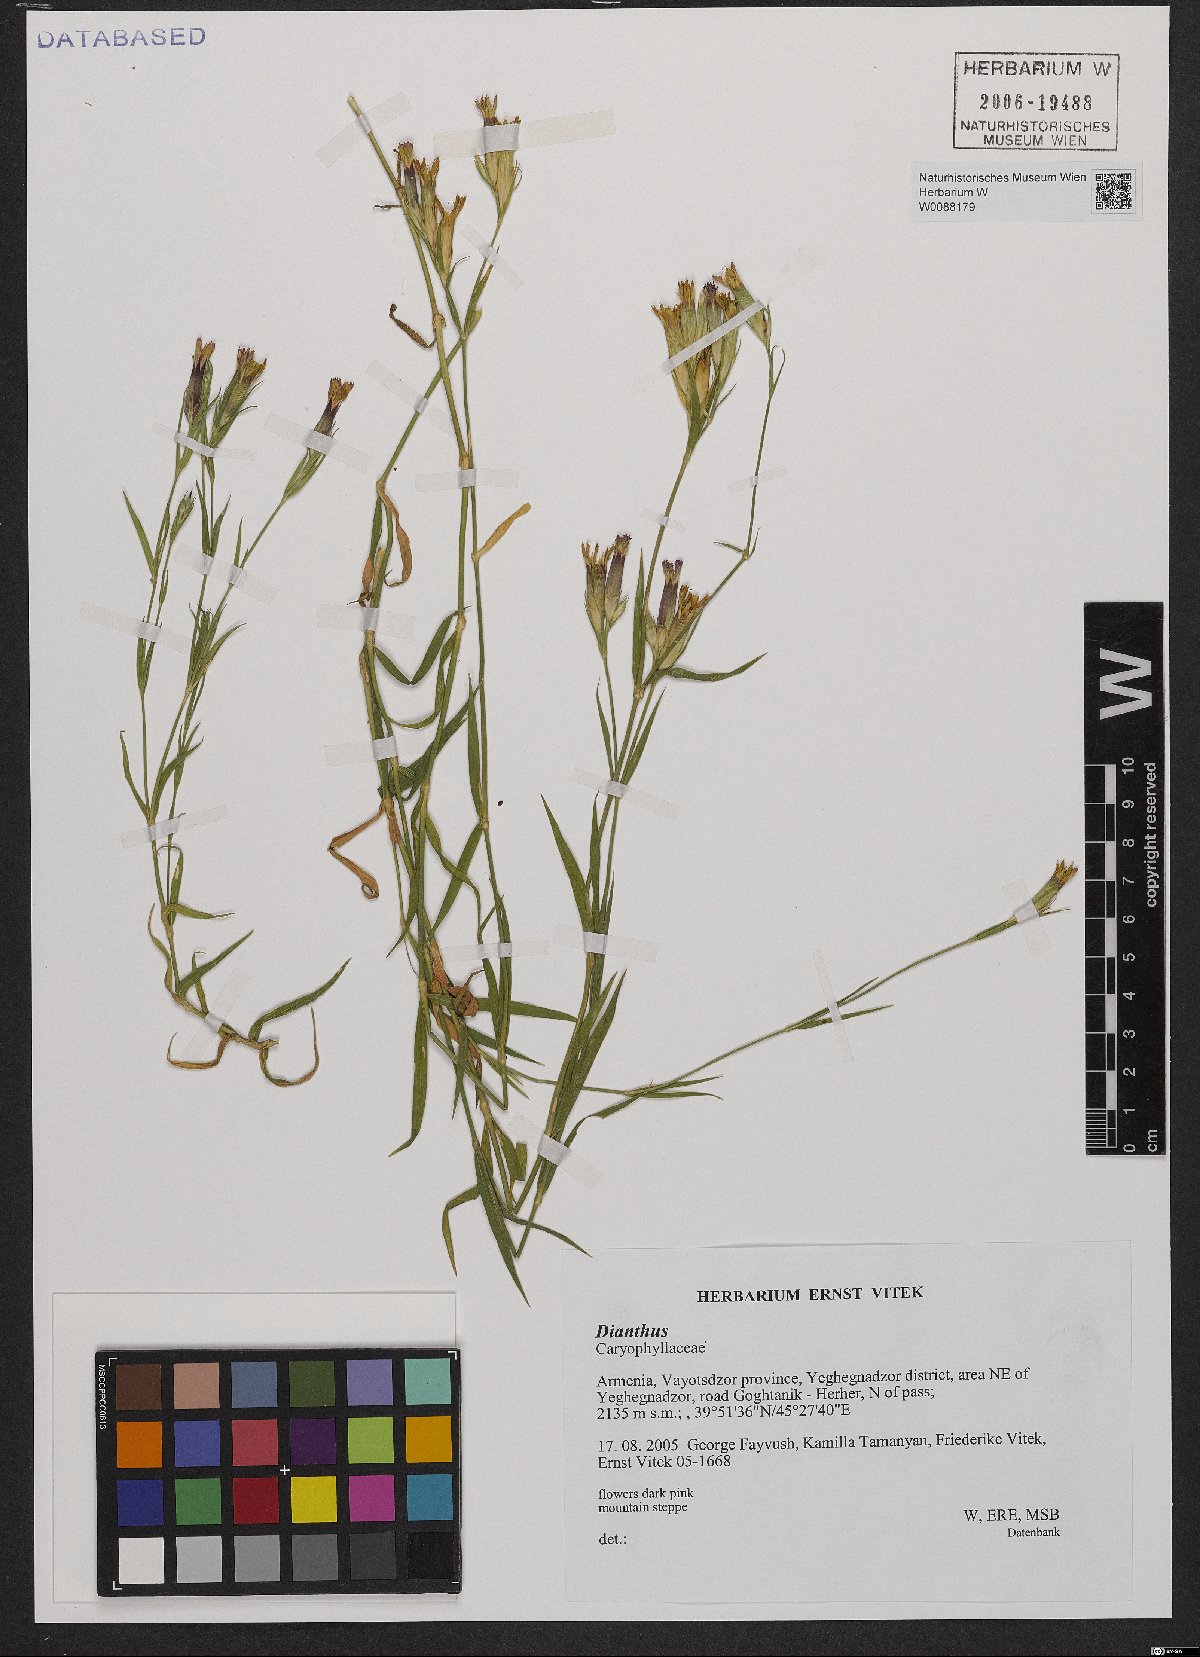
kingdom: Plantae
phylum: Tracheophyta
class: Magnoliopsida
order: Caryophyllales
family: Caryophyllaceae
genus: Dianthus
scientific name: Dianthus
